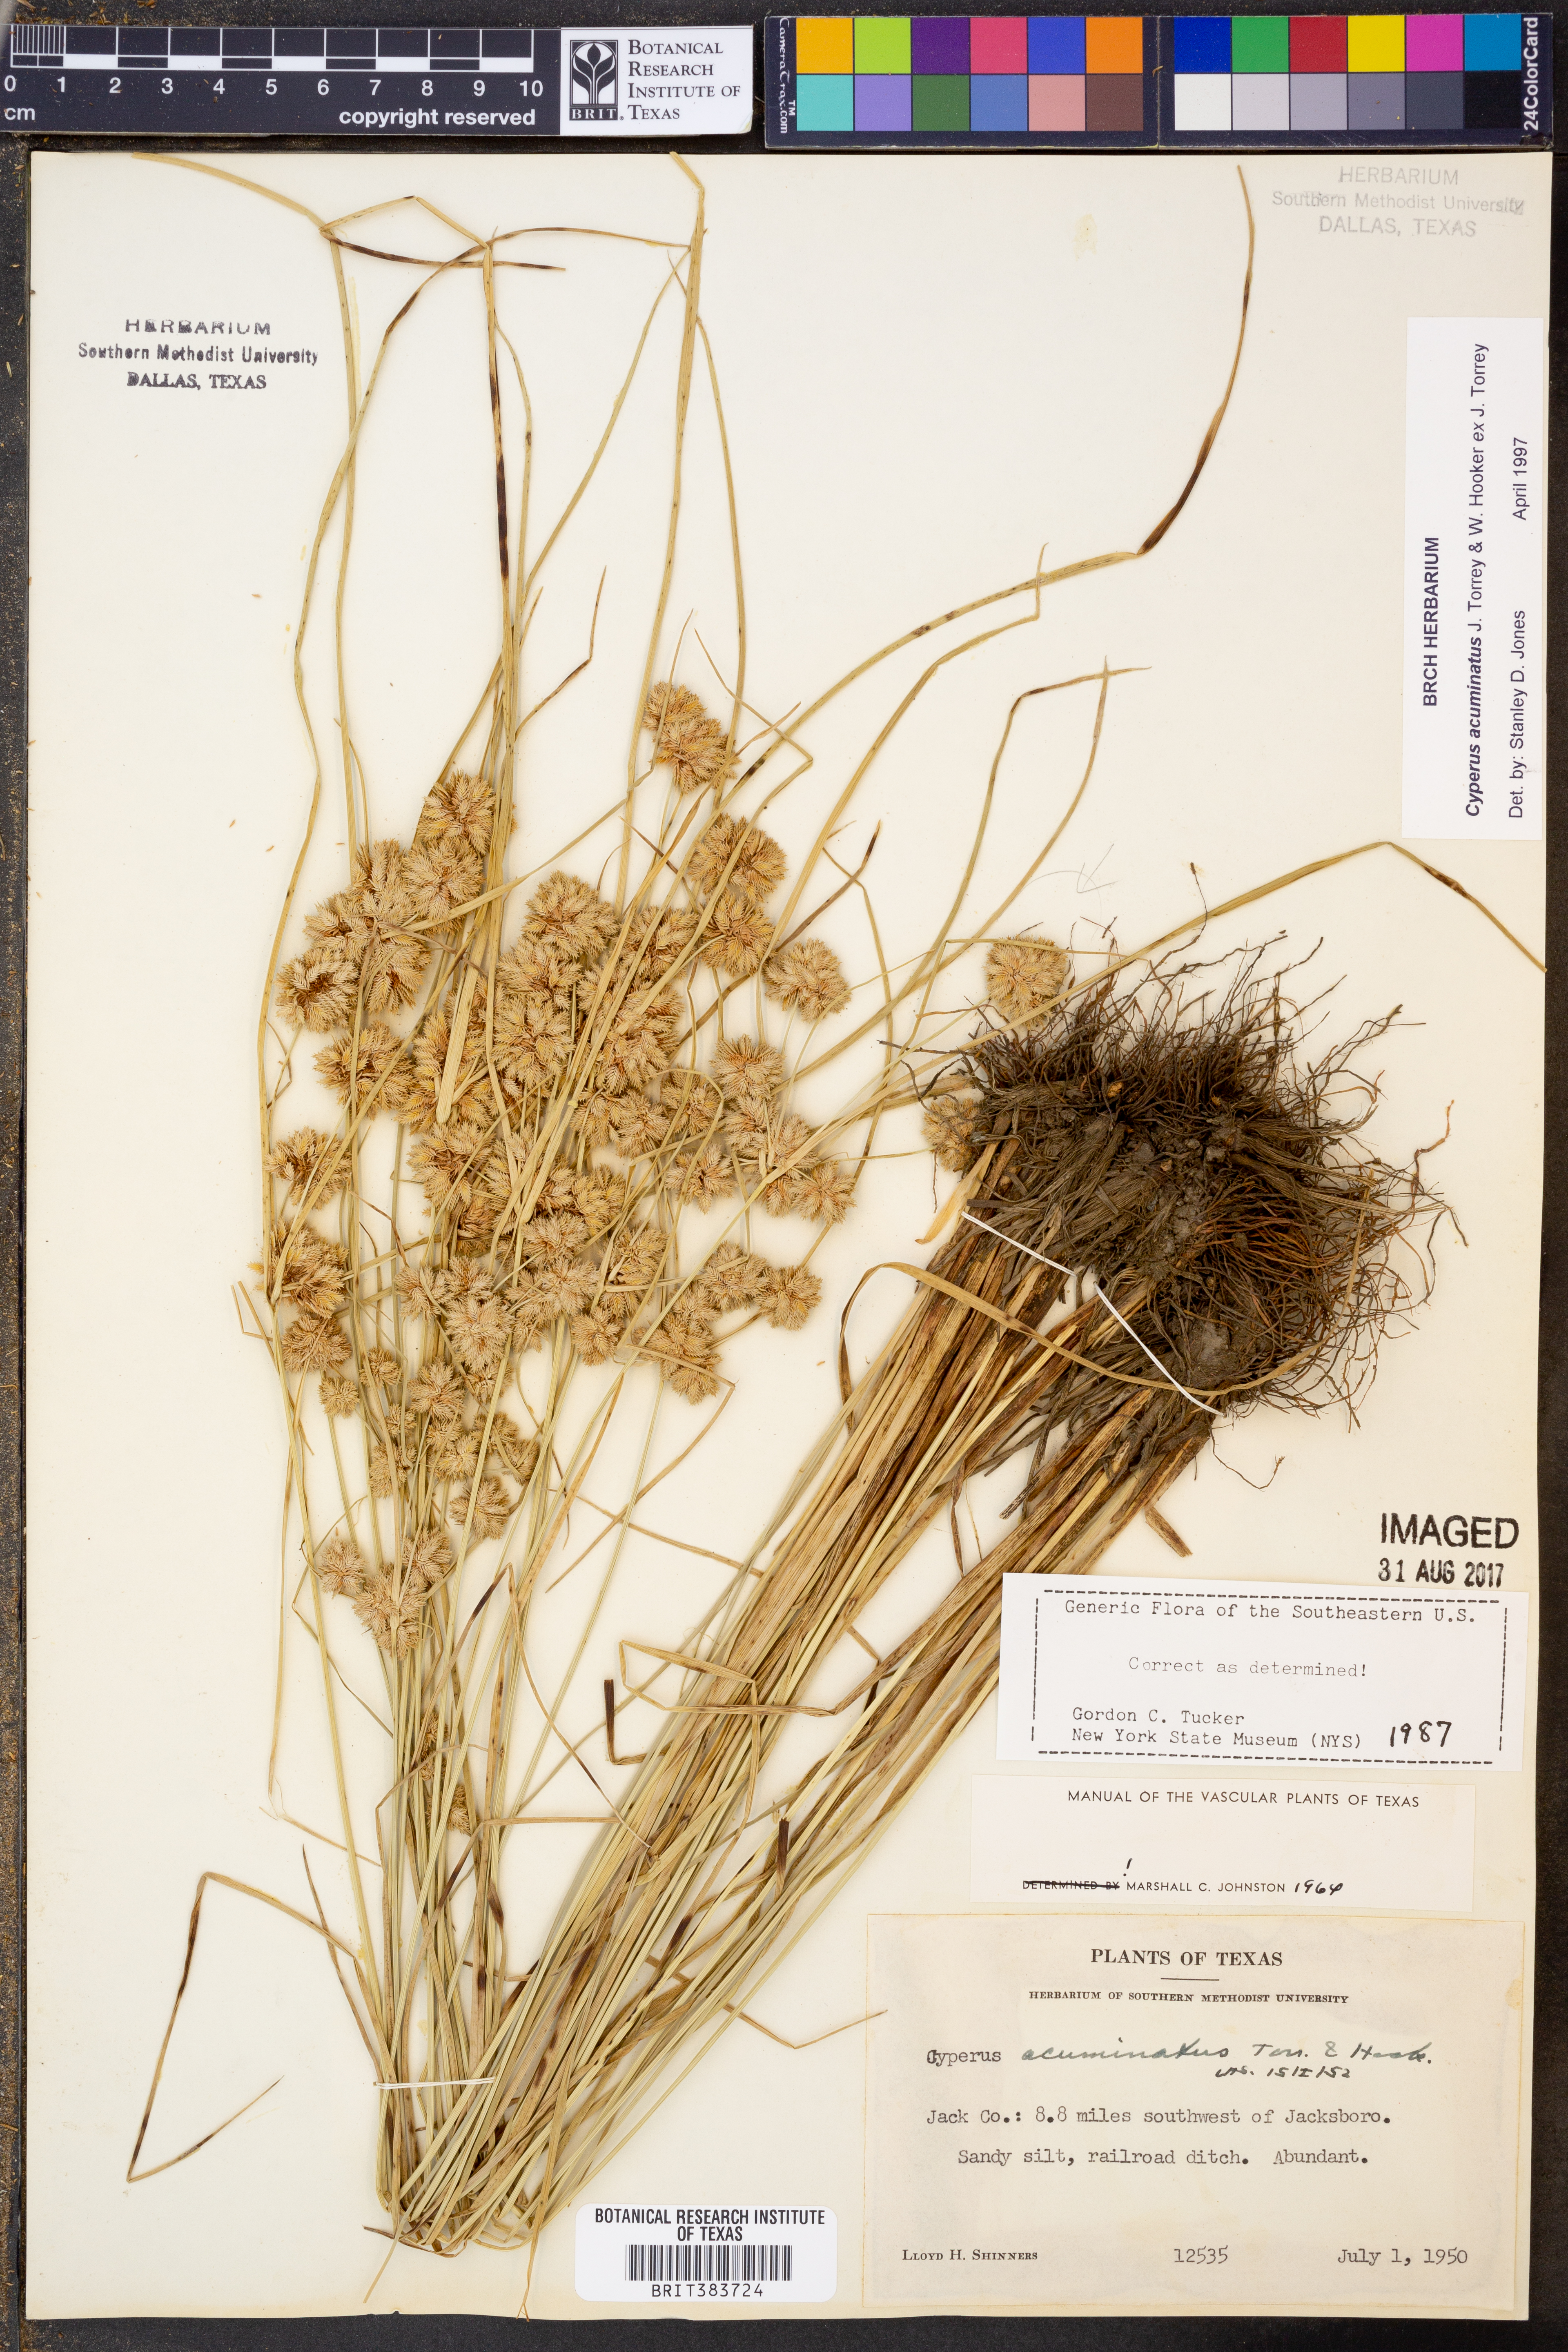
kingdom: Plantae
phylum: Tracheophyta
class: Liliopsida
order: Poales
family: Cyperaceae
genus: Cyperus
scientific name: Cyperus acuminatus
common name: Short-pointed cyperus
